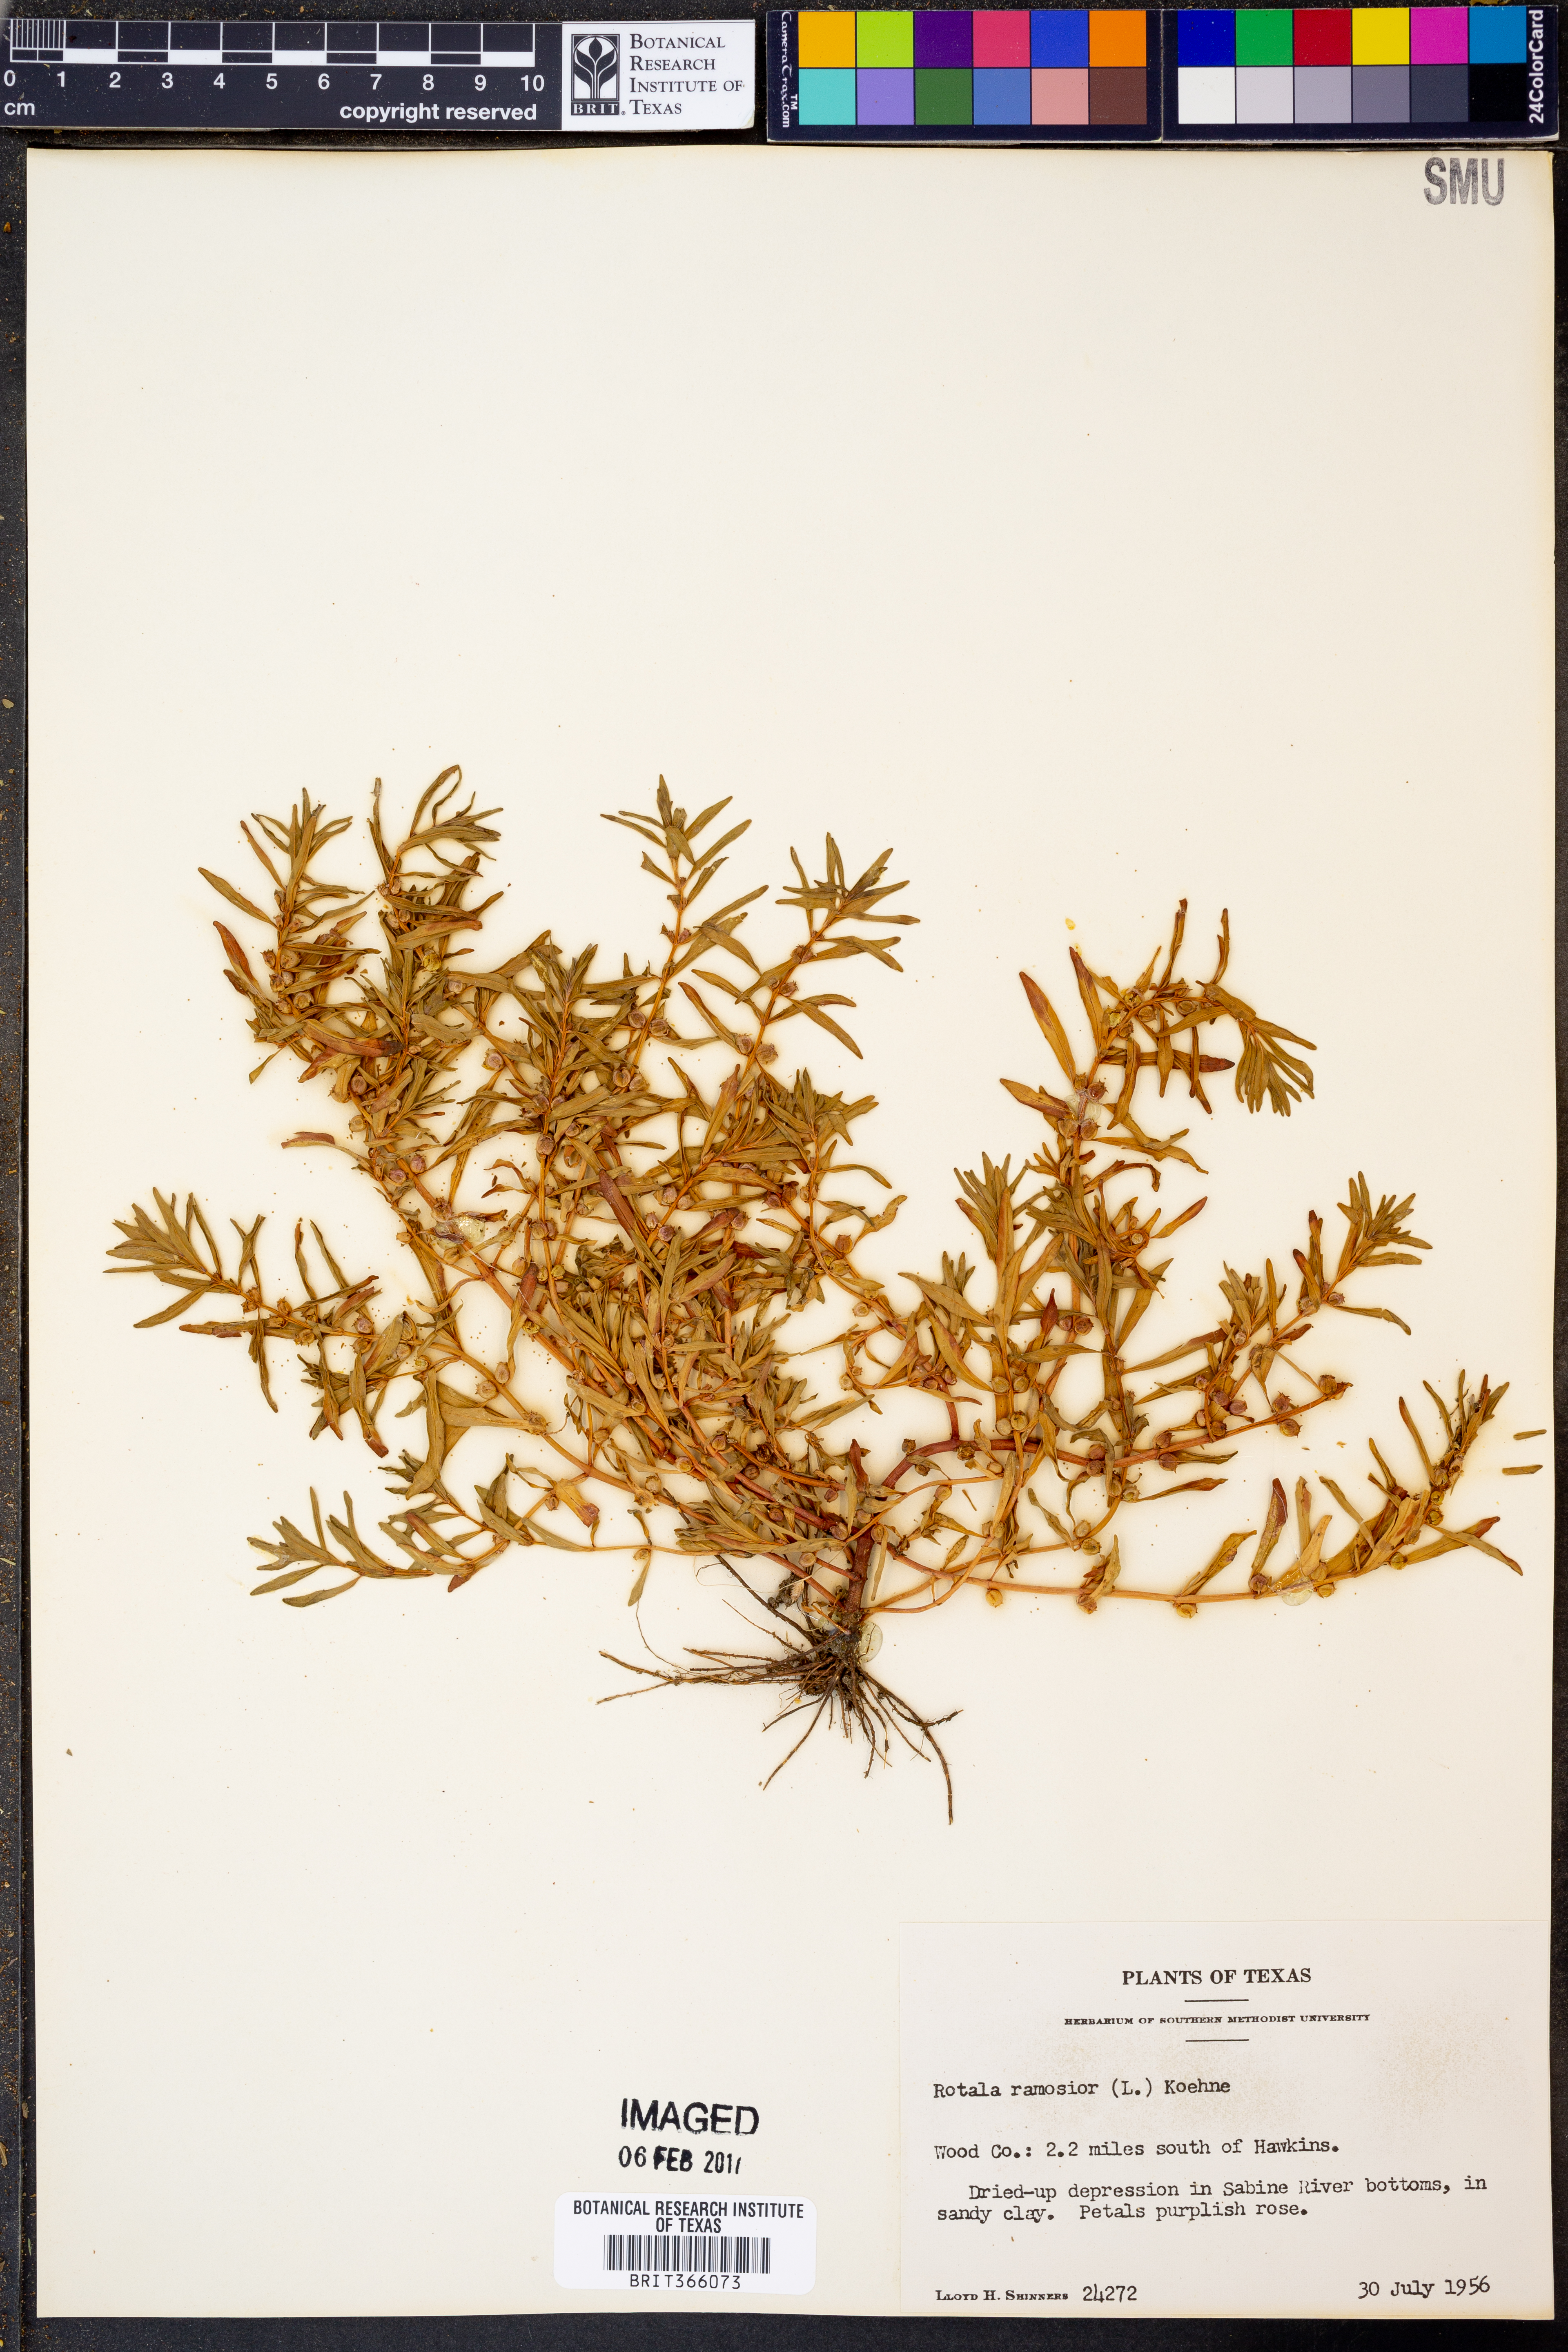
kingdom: Plantae
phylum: Tracheophyta
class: Magnoliopsida
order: Myrtales
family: Lythraceae
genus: Rotala
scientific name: Rotala ramosior
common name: Lowland rotala
